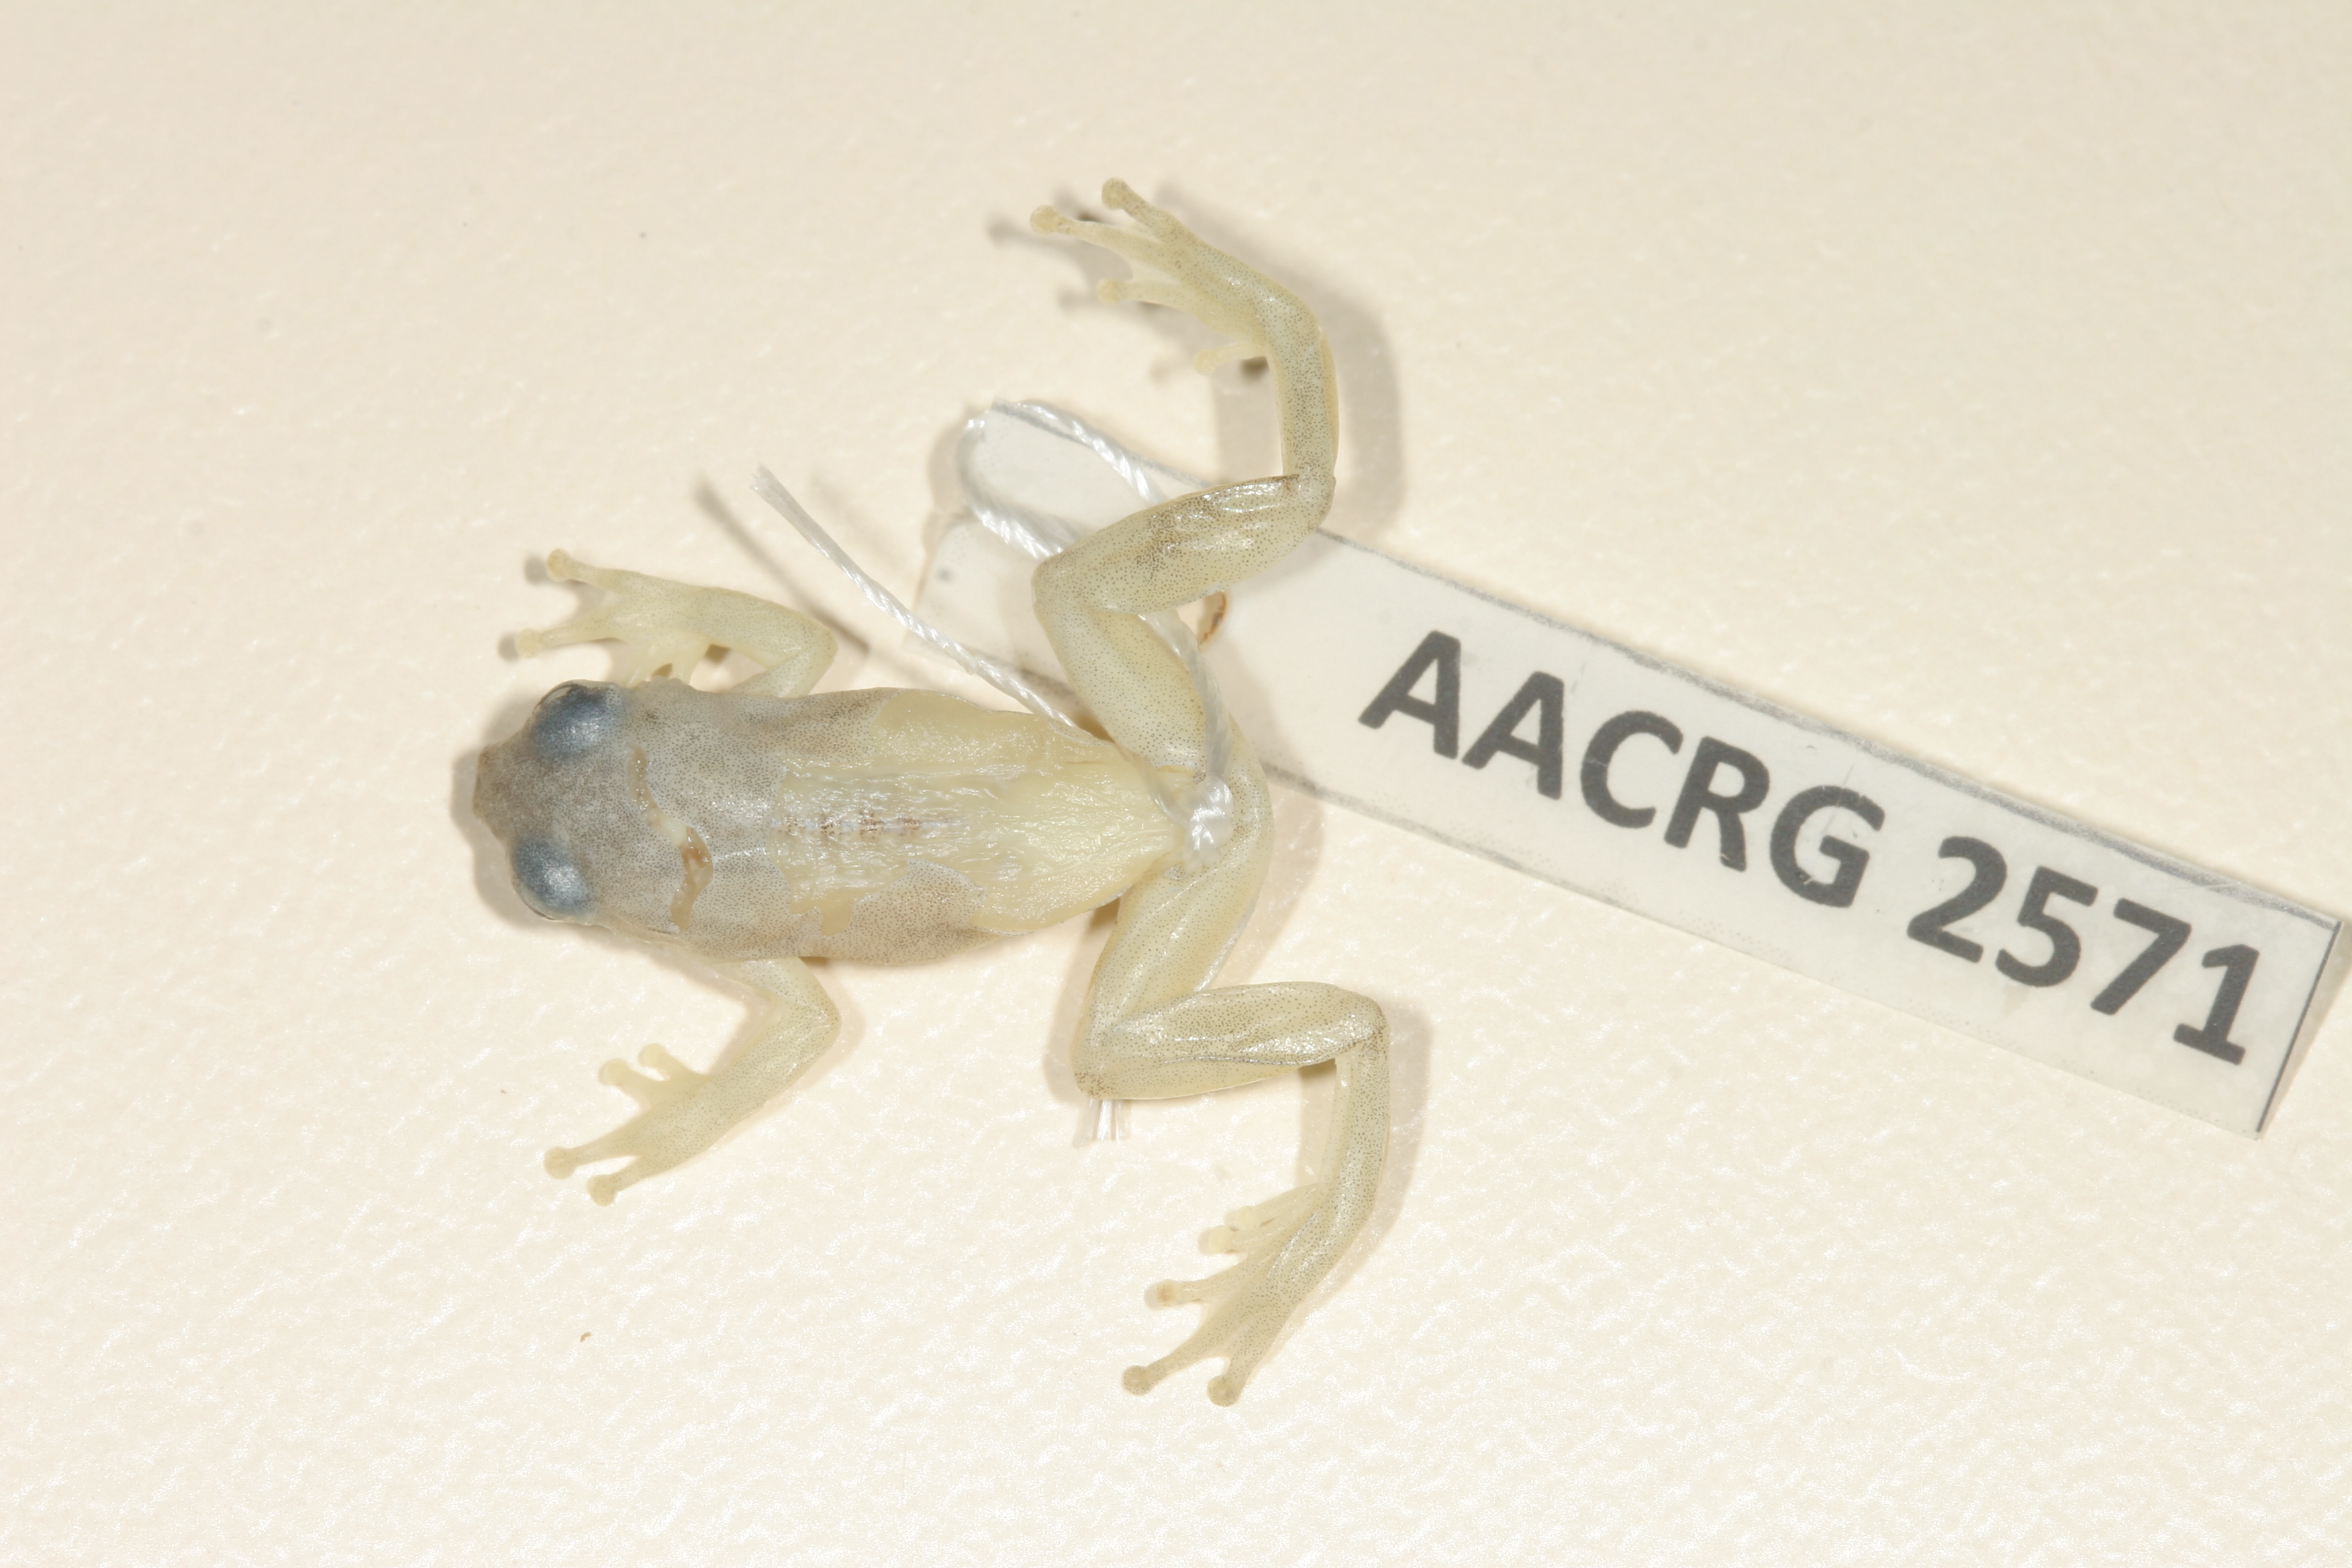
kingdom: Animalia
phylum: Chordata
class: Amphibia
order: Anura
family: Hyperoliidae
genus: Afrixalus
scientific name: Afrixalus aureus
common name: Golden banana frog
